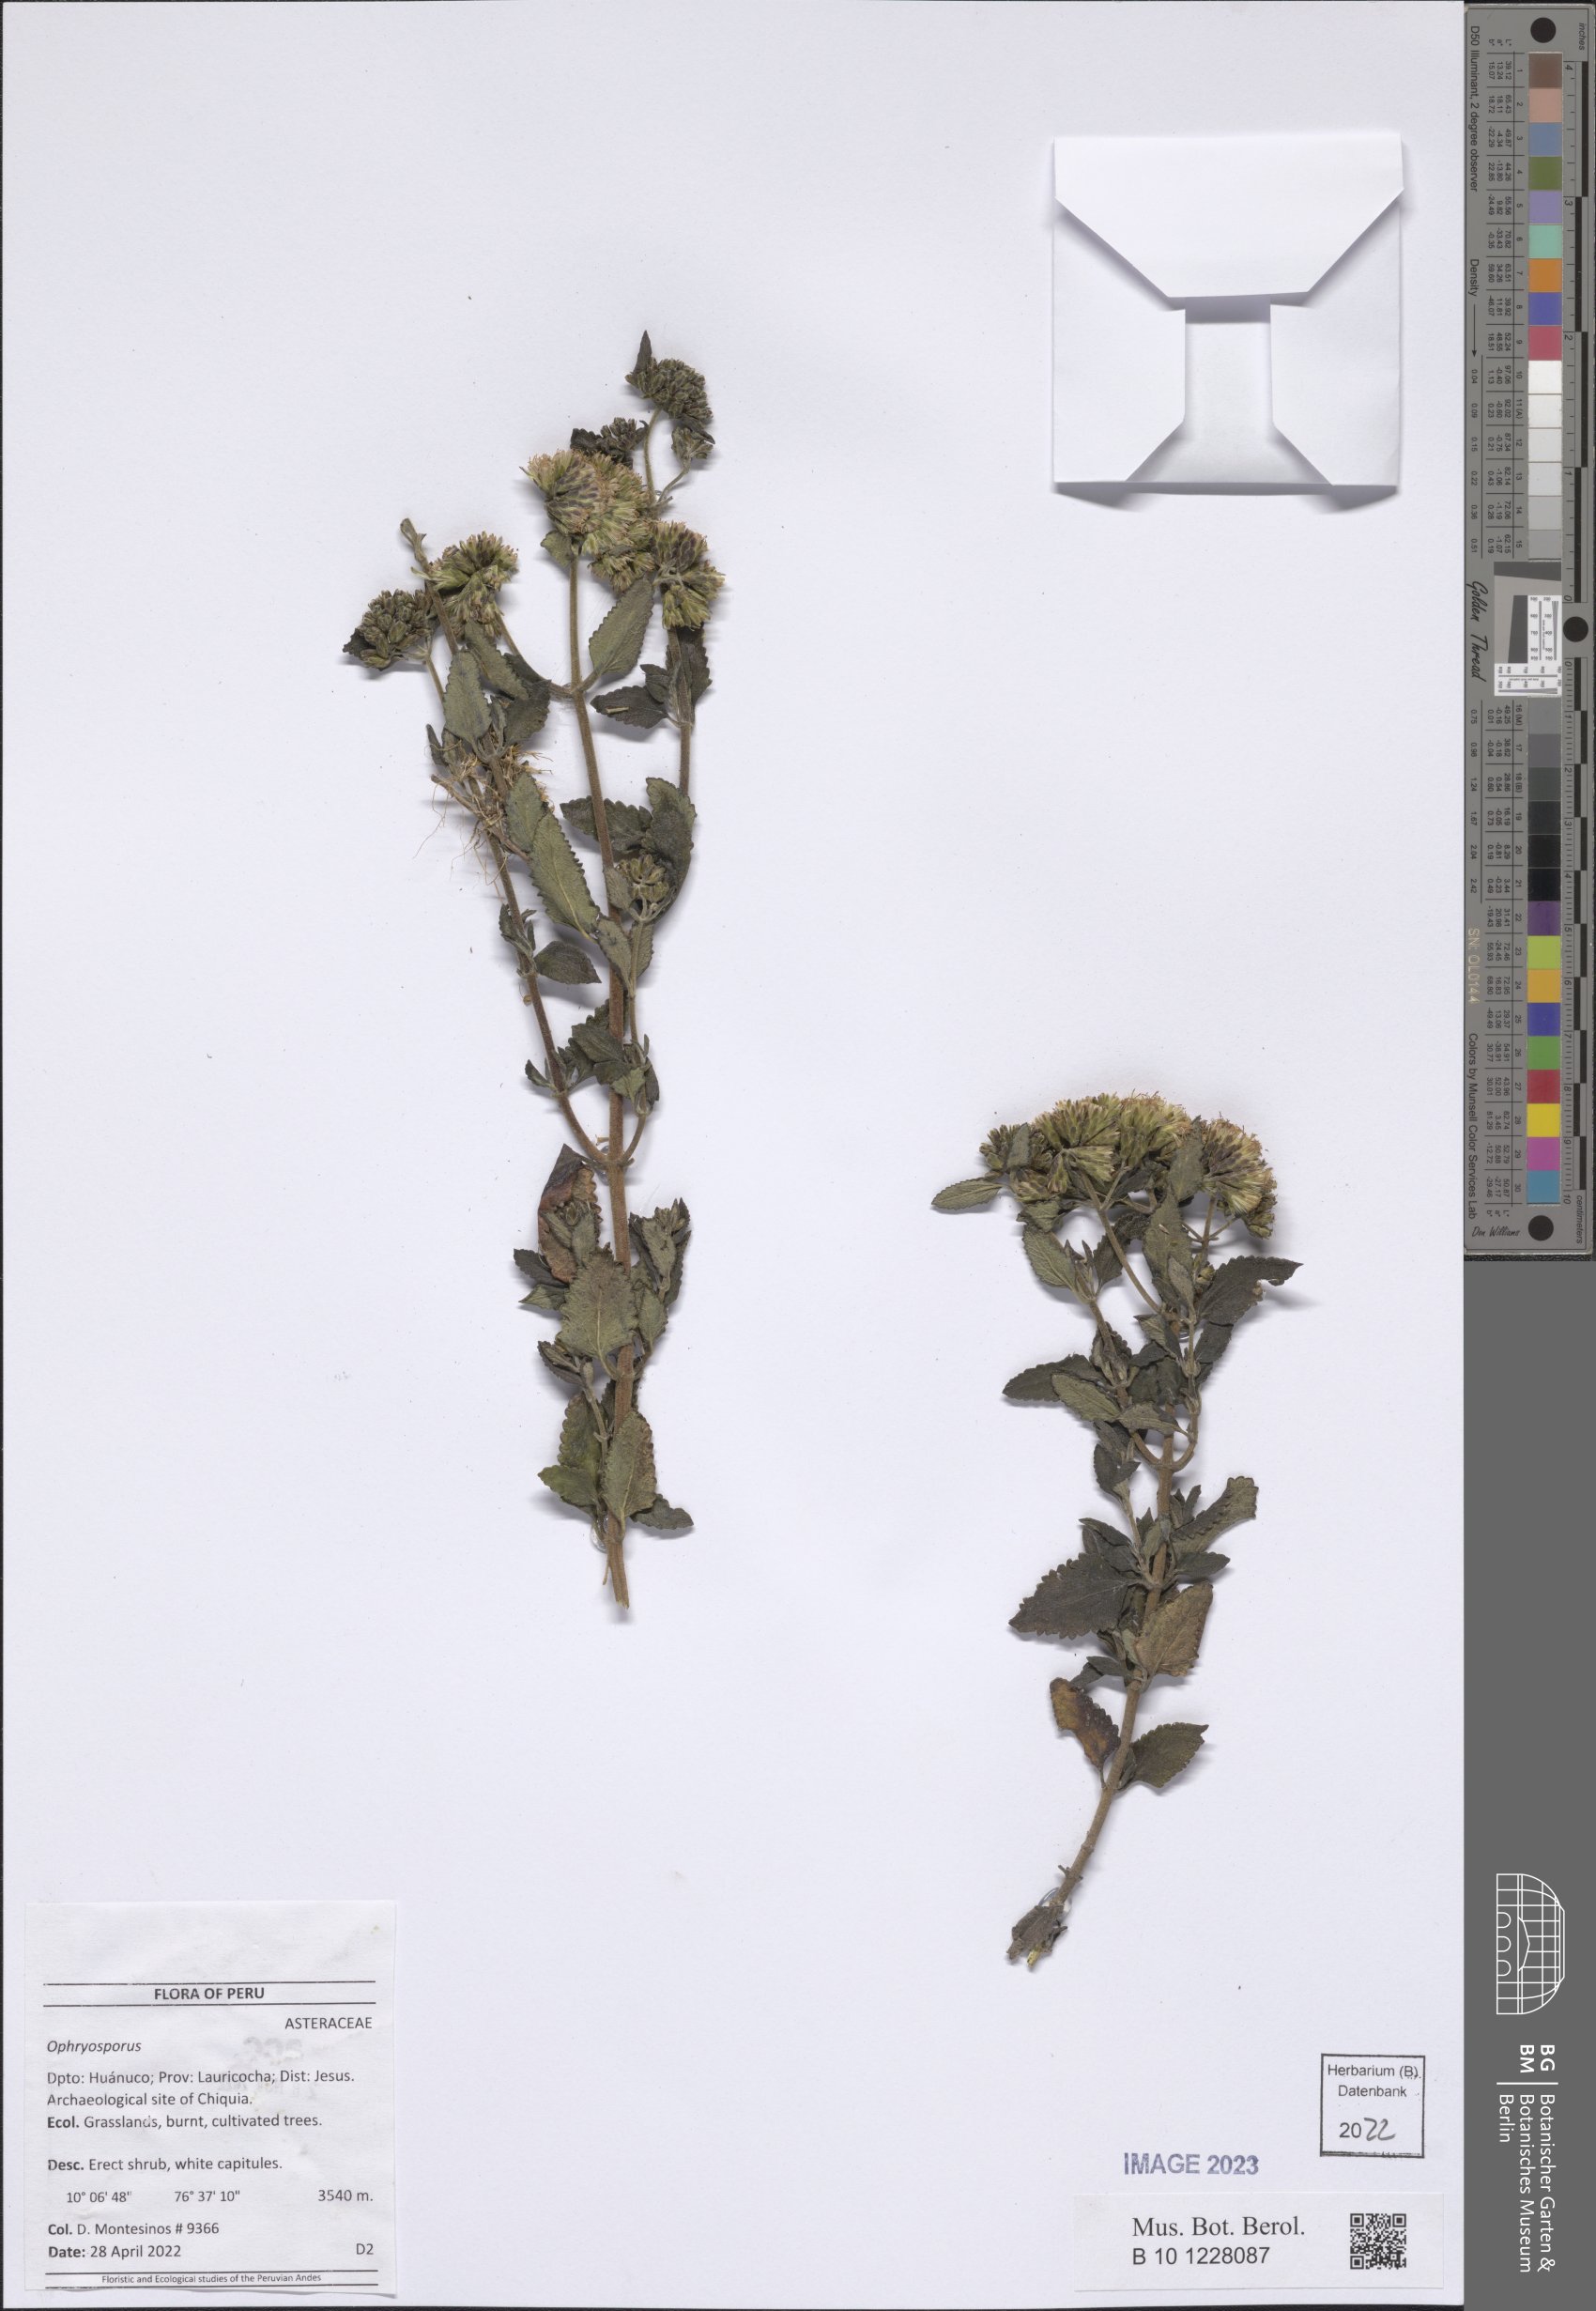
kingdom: Plantae
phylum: Tracheophyta
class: Magnoliopsida
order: Asterales
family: Asteraceae
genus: Ophryosporus
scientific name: Ophryosporus
